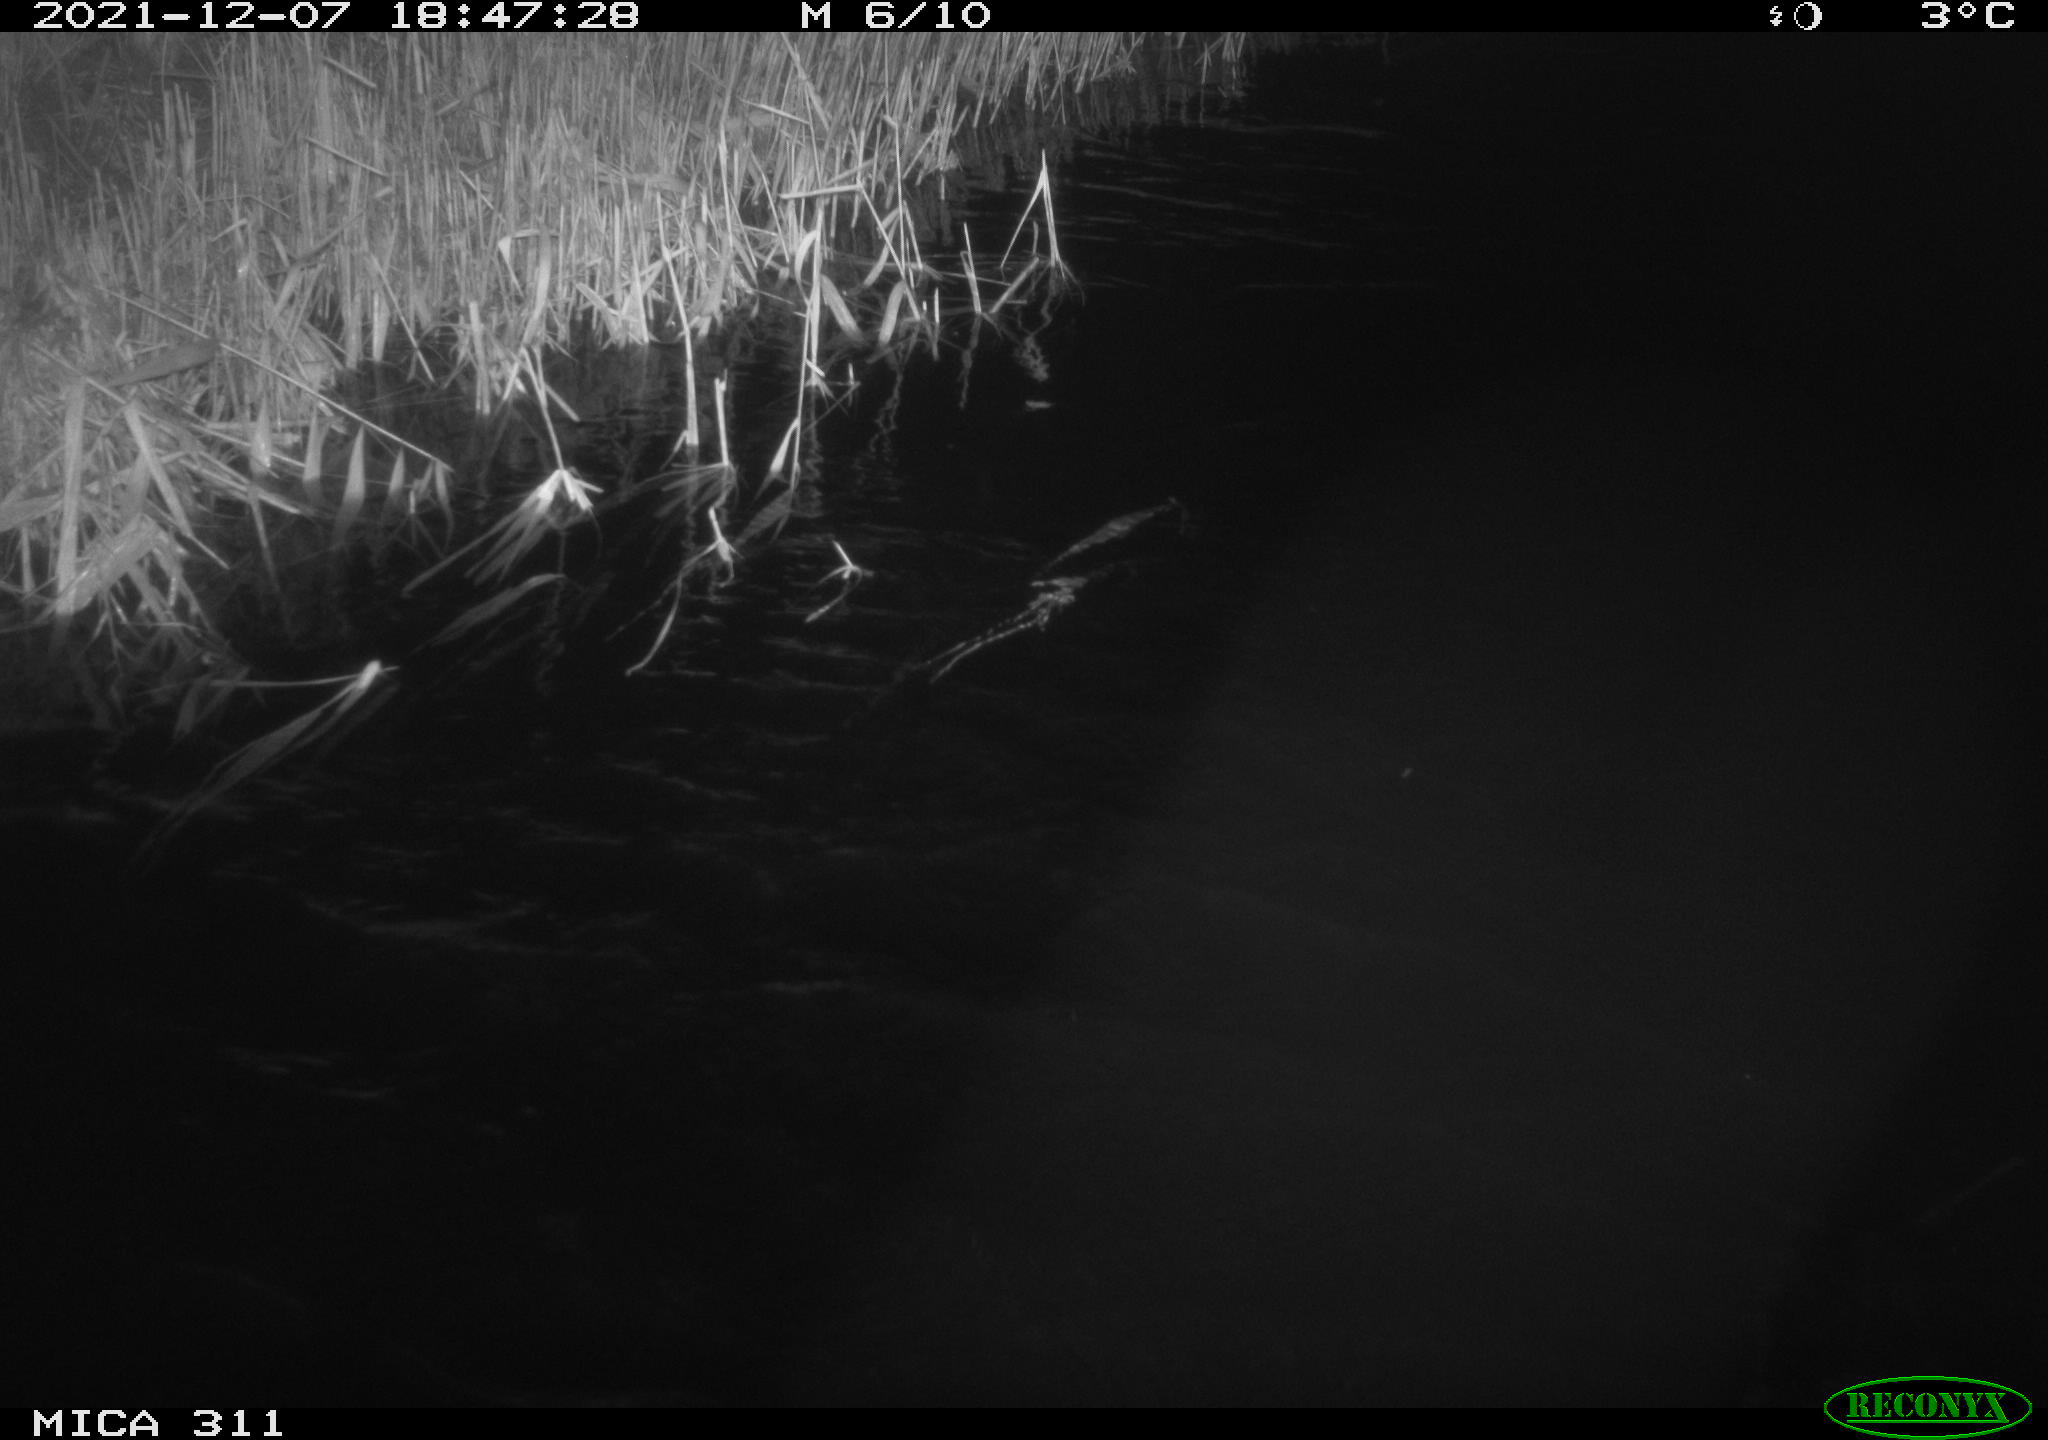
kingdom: Animalia
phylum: Chordata
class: Mammalia
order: Rodentia
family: Muridae
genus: Rattus
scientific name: Rattus norvegicus
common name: Brown rat
